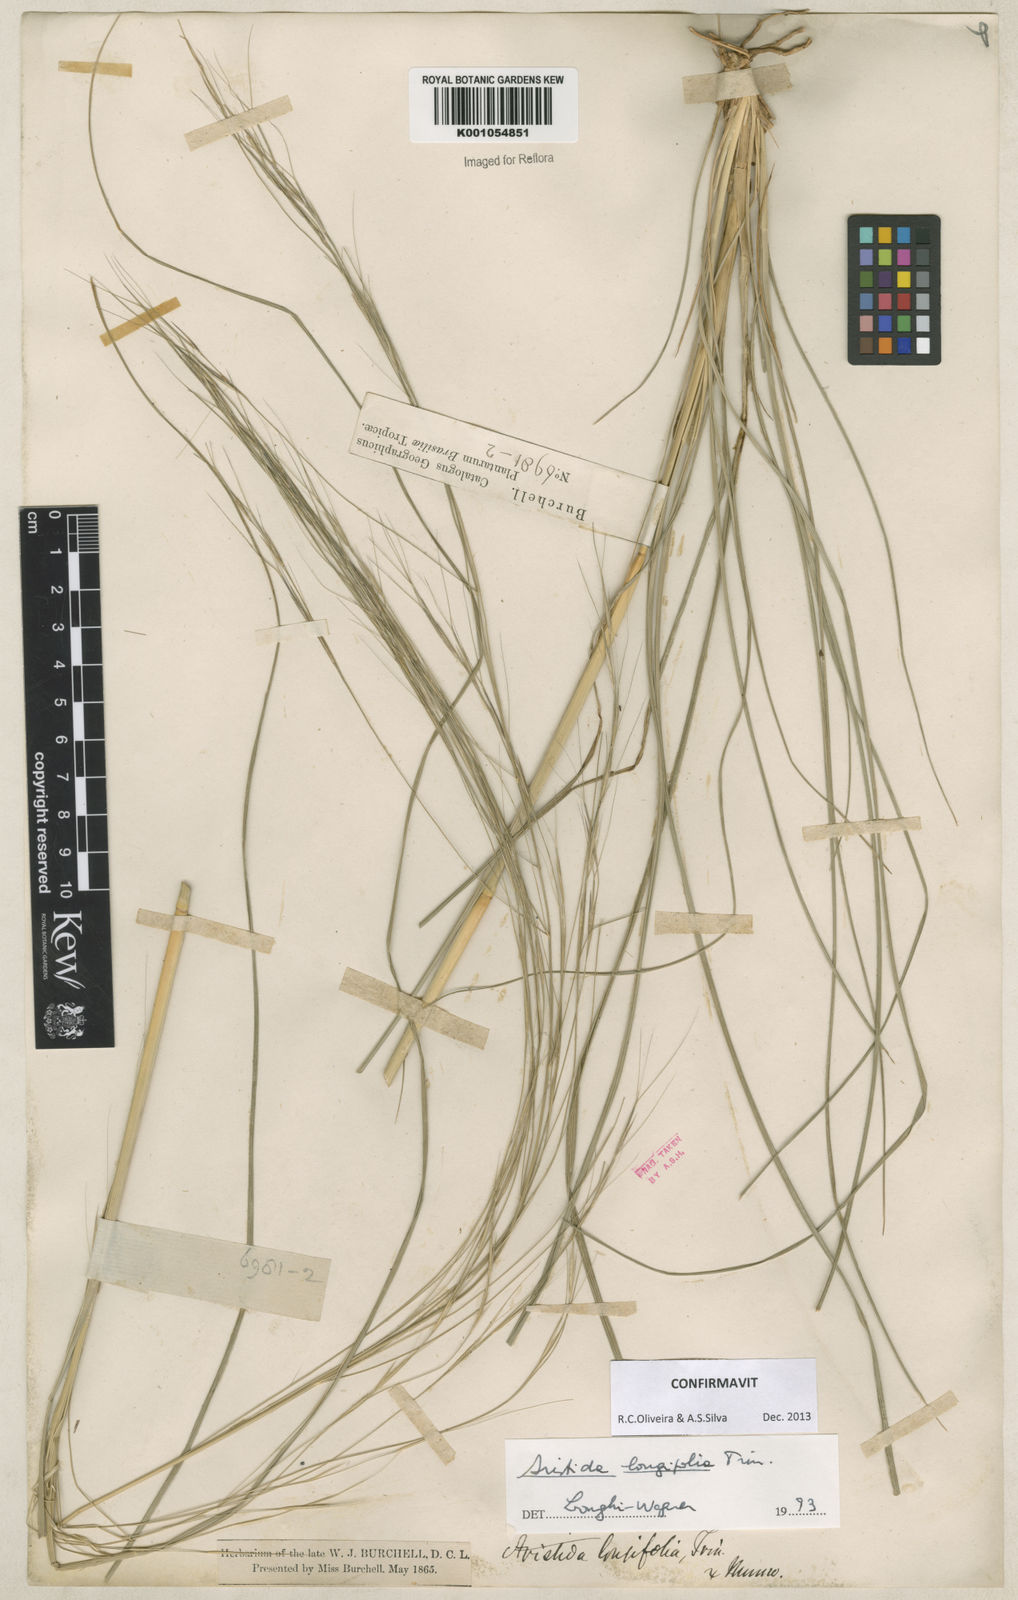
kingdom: Plantae
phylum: Tracheophyta
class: Liliopsida
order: Poales
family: Poaceae
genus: Aristida
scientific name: Aristida longifolia
